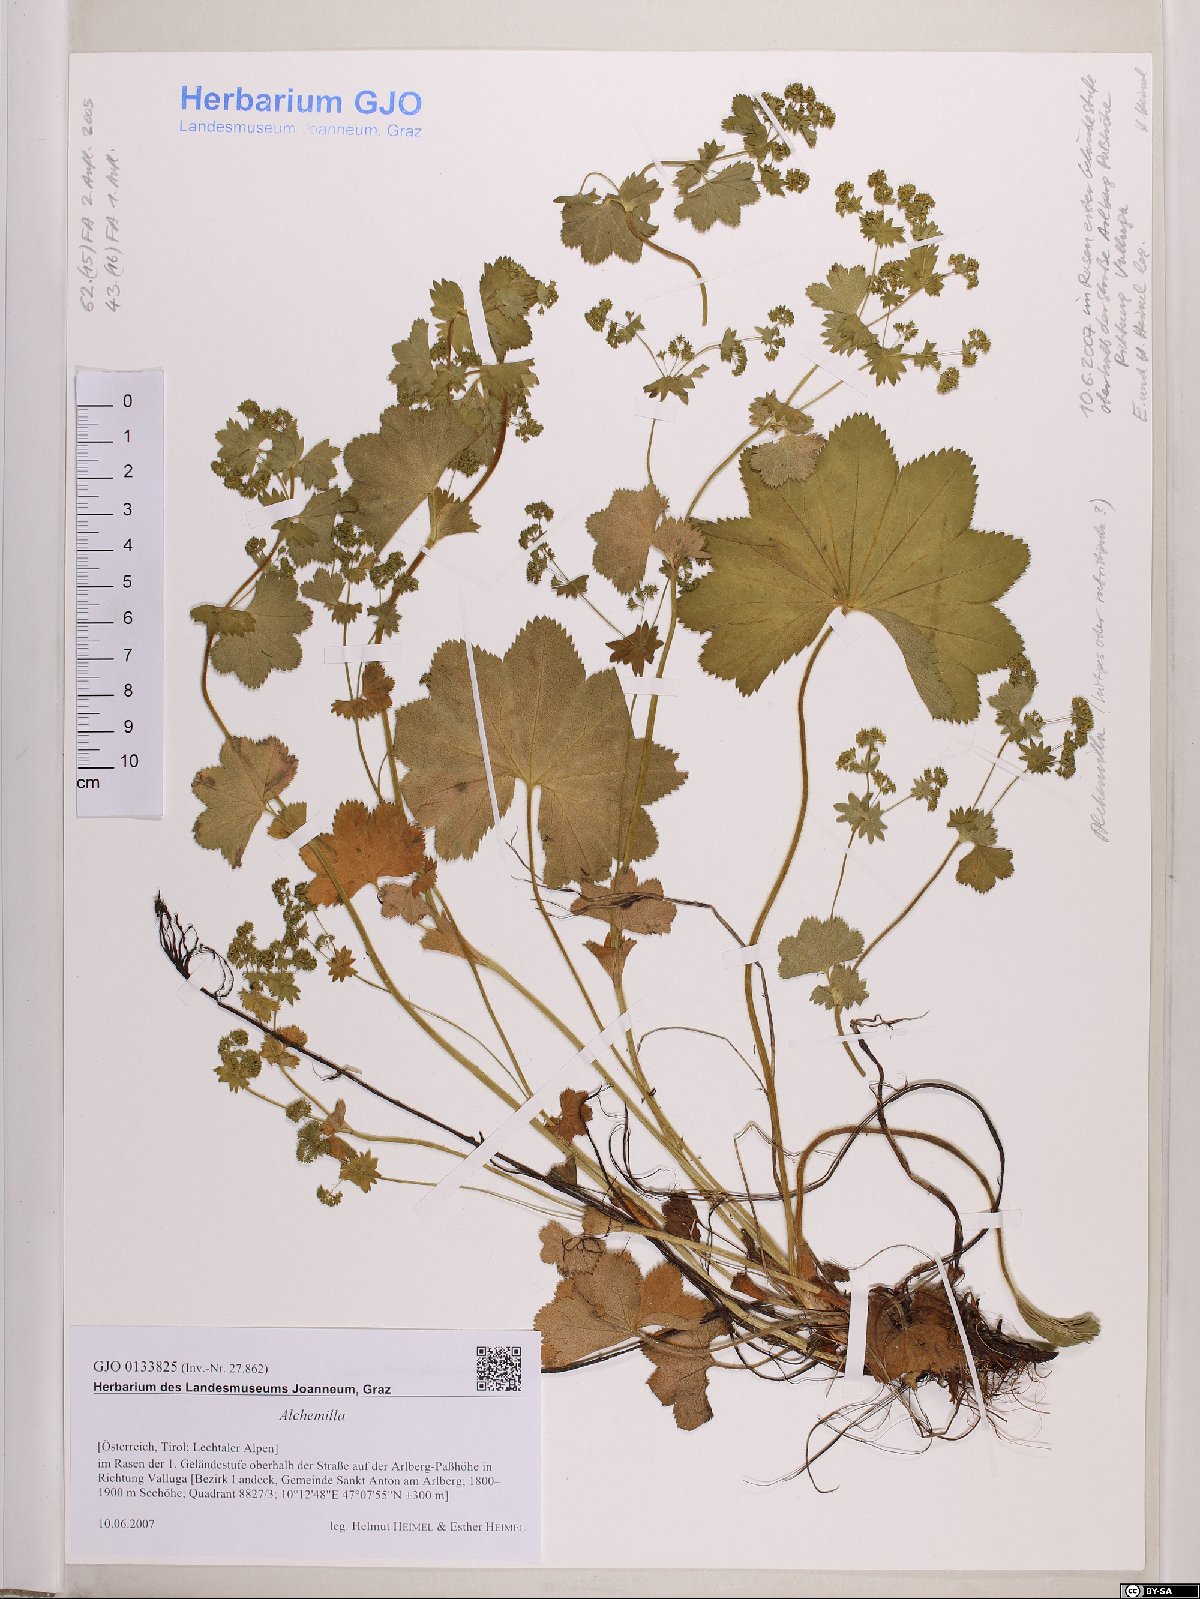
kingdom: Plantae
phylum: Tracheophyta
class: Magnoliopsida
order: Rosales
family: Rosaceae
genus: Alchemilla
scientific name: Alchemilla
